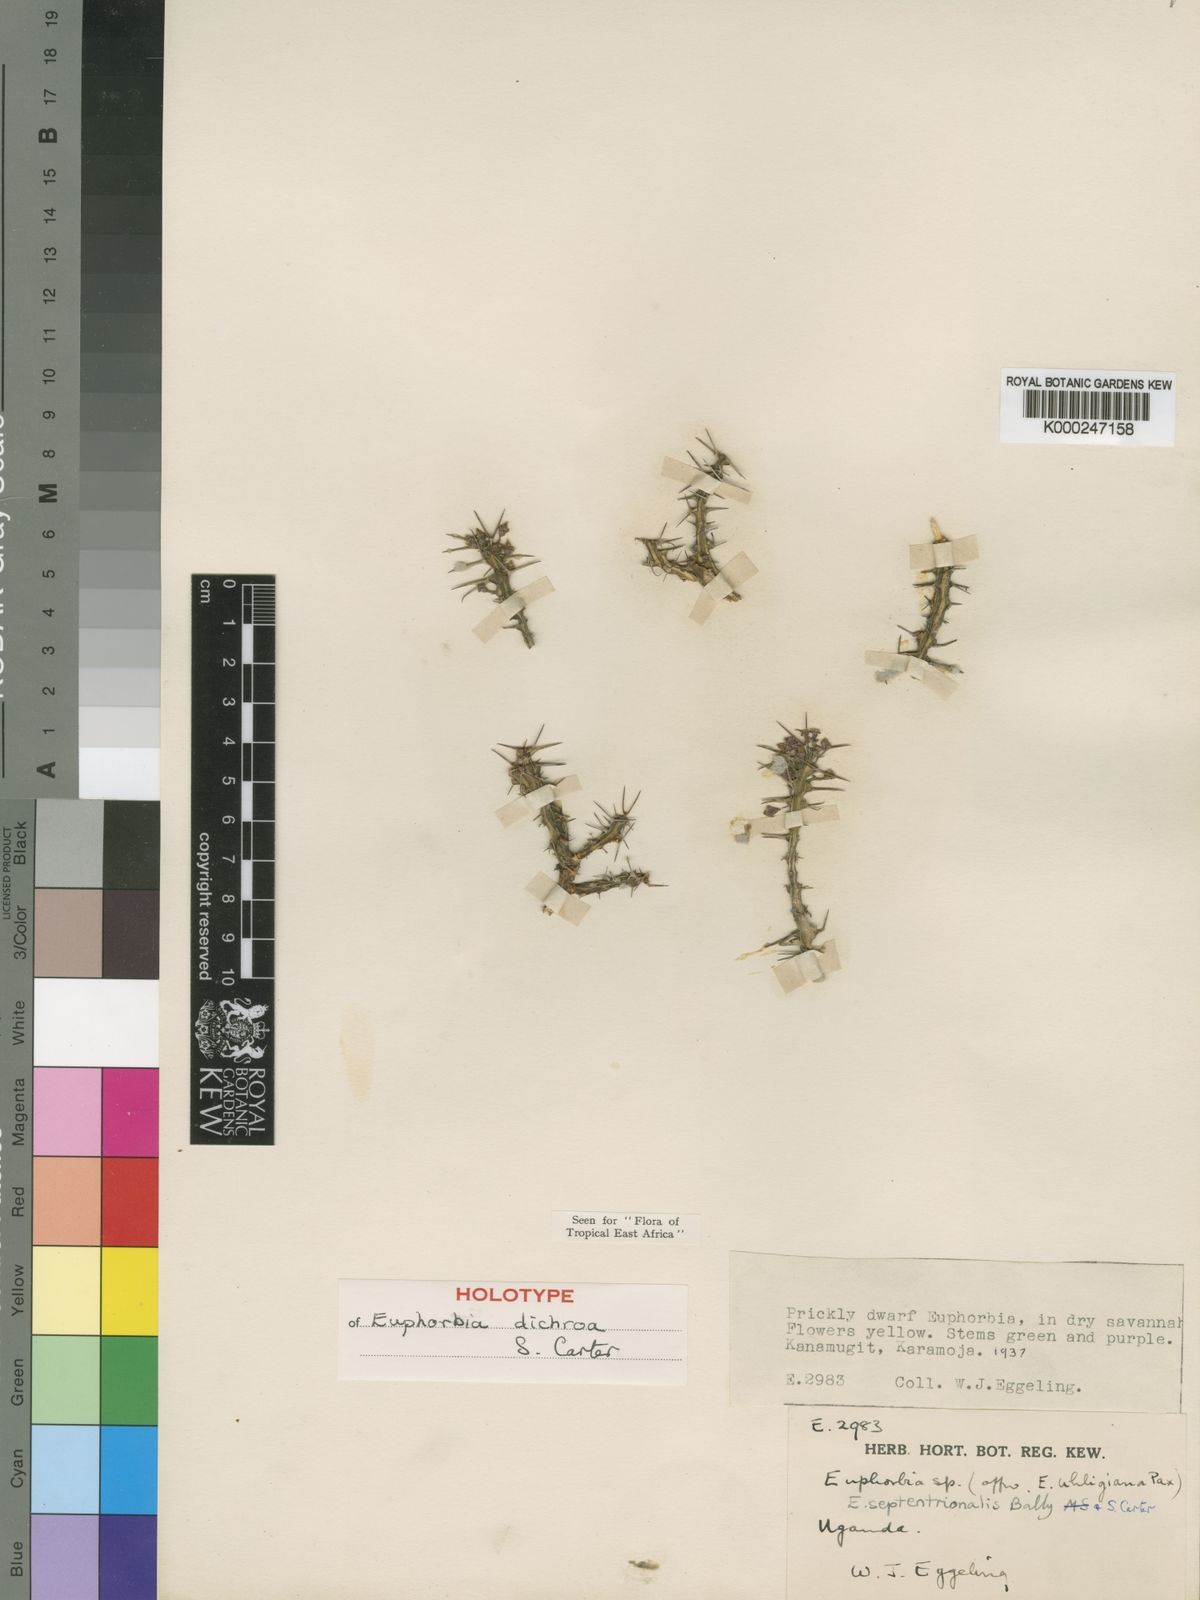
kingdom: Plantae
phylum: Tracheophyta
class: Magnoliopsida
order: Malpighiales
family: Euphorbiaceae
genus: Euphorbia
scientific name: Euphorbia dichroa
